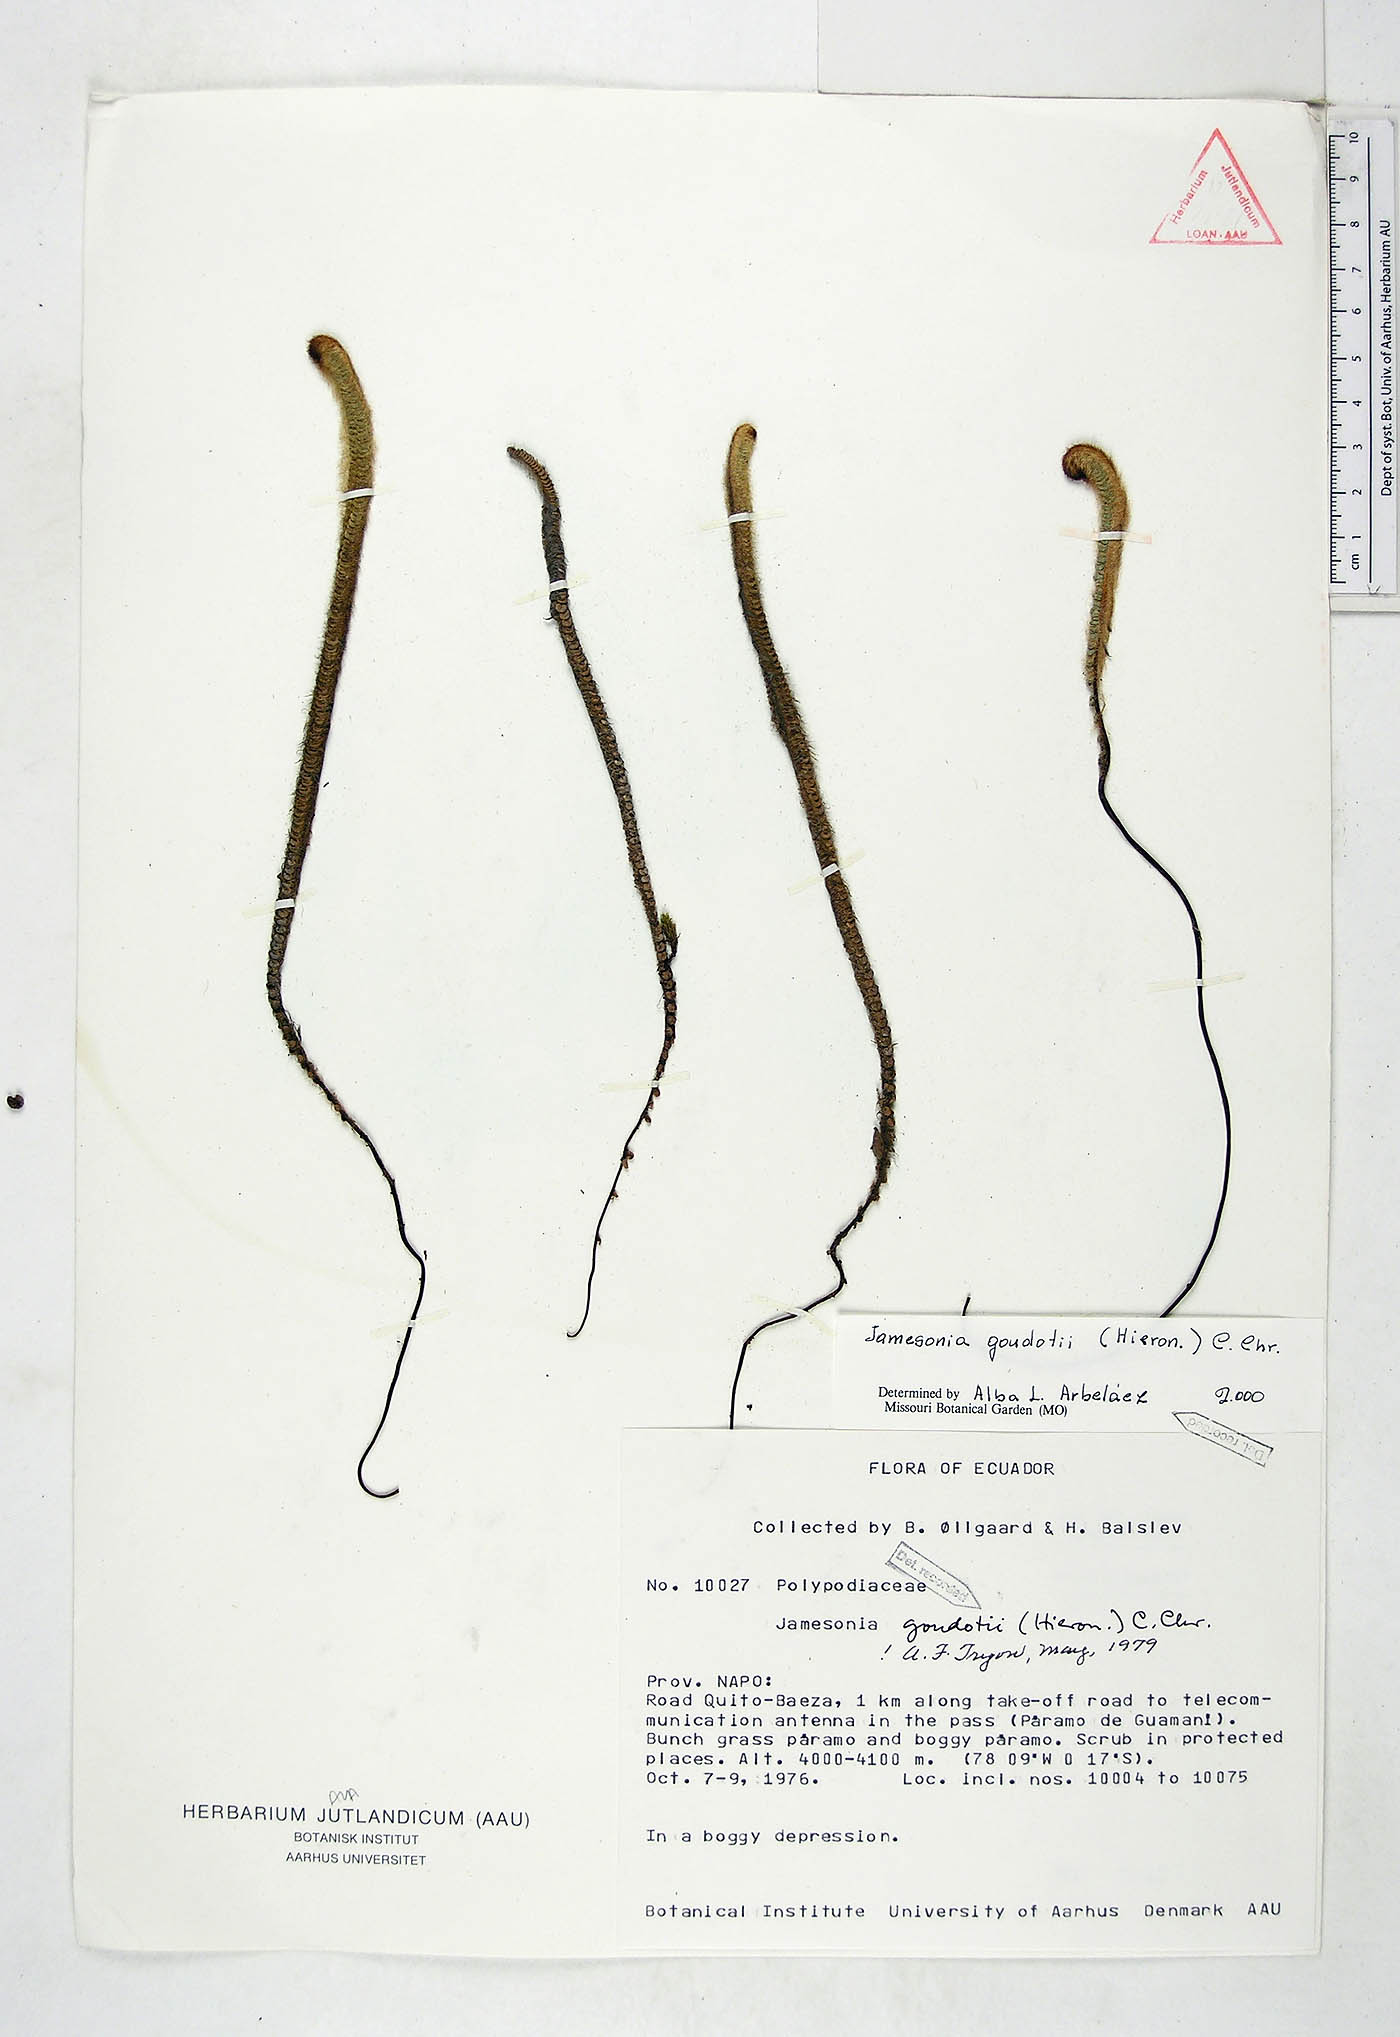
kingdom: Plantae
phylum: Tracheophyta
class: Polypodiopsida
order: Polypodiales
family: Pteridaceae
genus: Jamesonia
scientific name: Jamesonia goudotii
